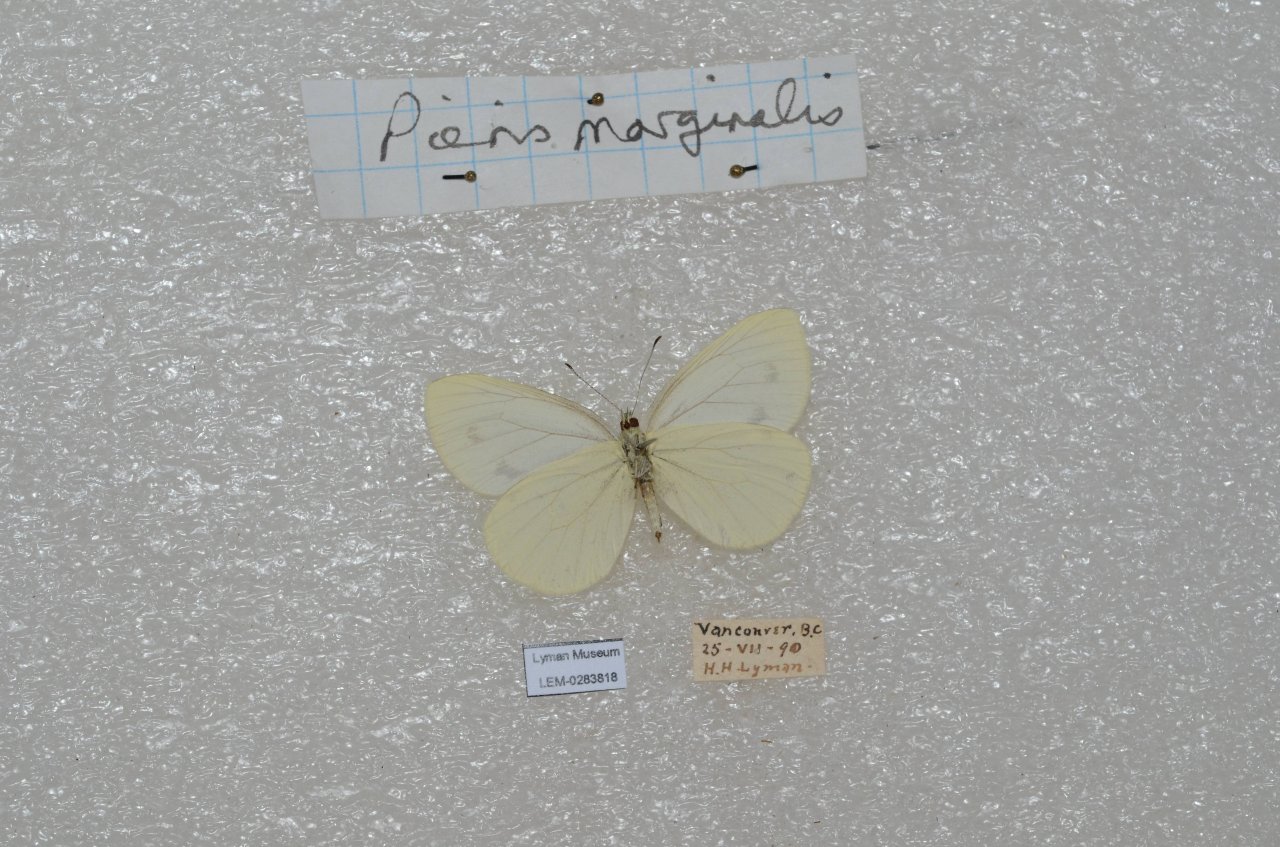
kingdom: Animalia
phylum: Arthropoda
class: Insecta
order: Lepidoptera
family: Pieridae
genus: Pieris
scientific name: Pieris marginalis
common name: Margined White
